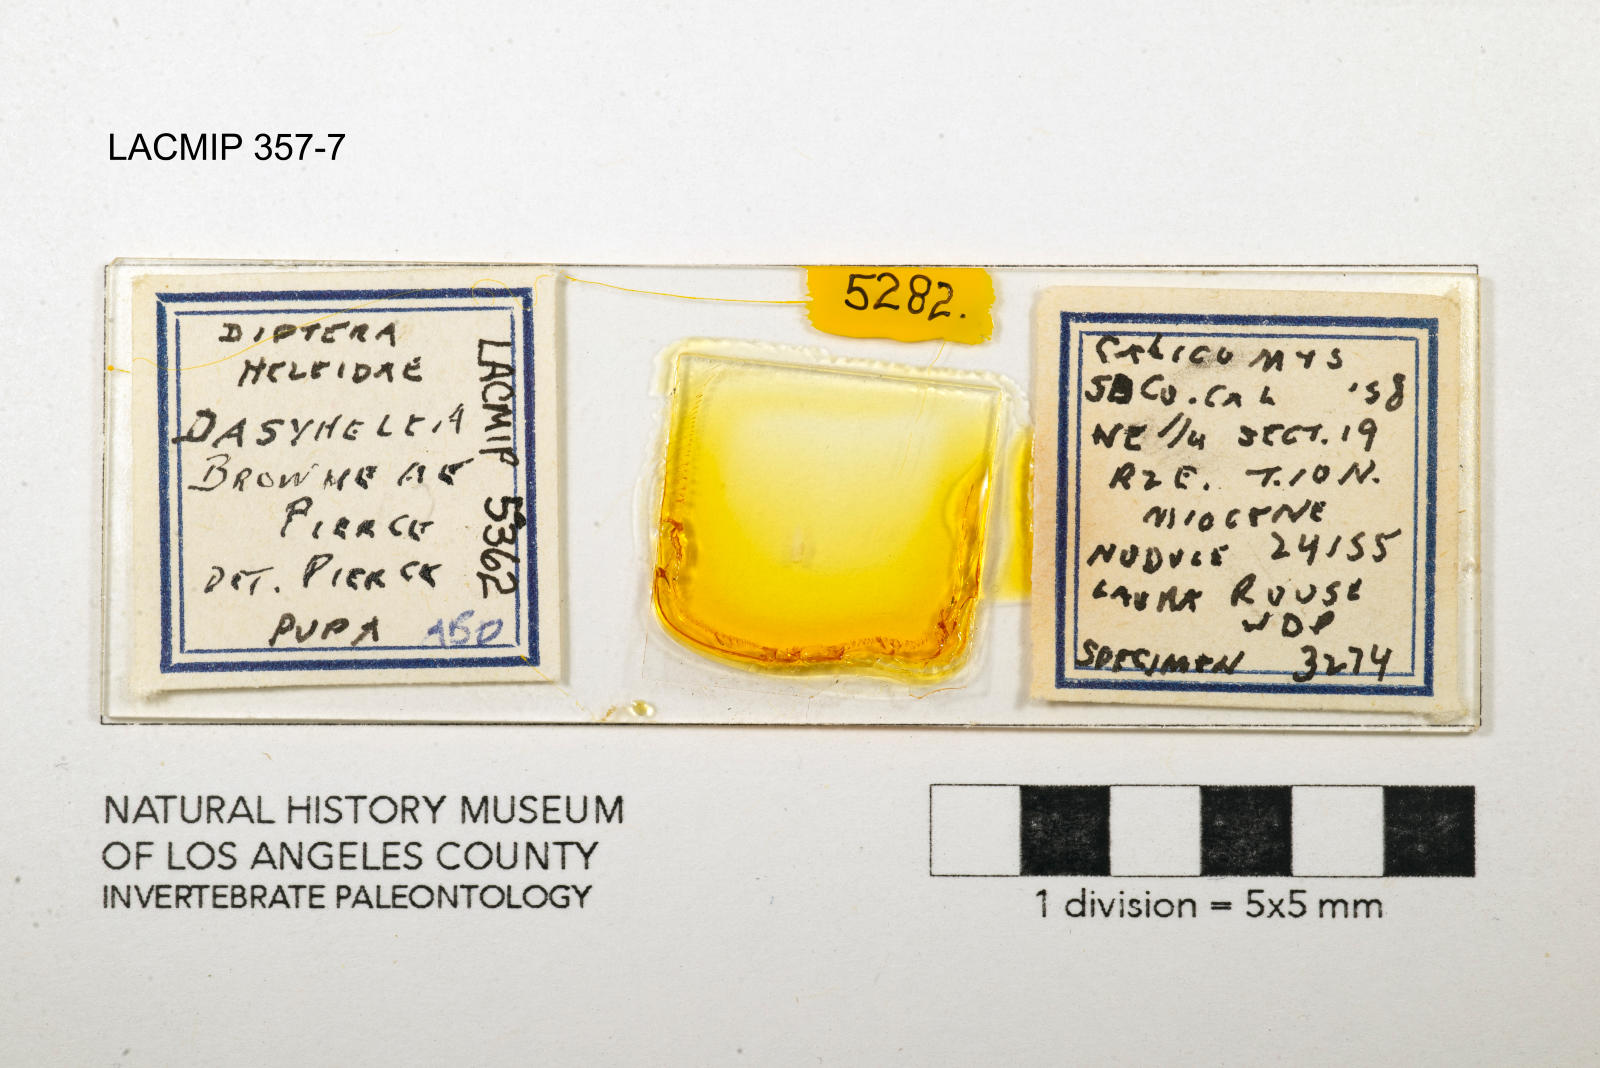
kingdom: Animalia
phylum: Arthropoda
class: Insecta
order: Diptera
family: Ceratopogonidae
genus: Dasyhelea
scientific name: Dasyhelea browneae
